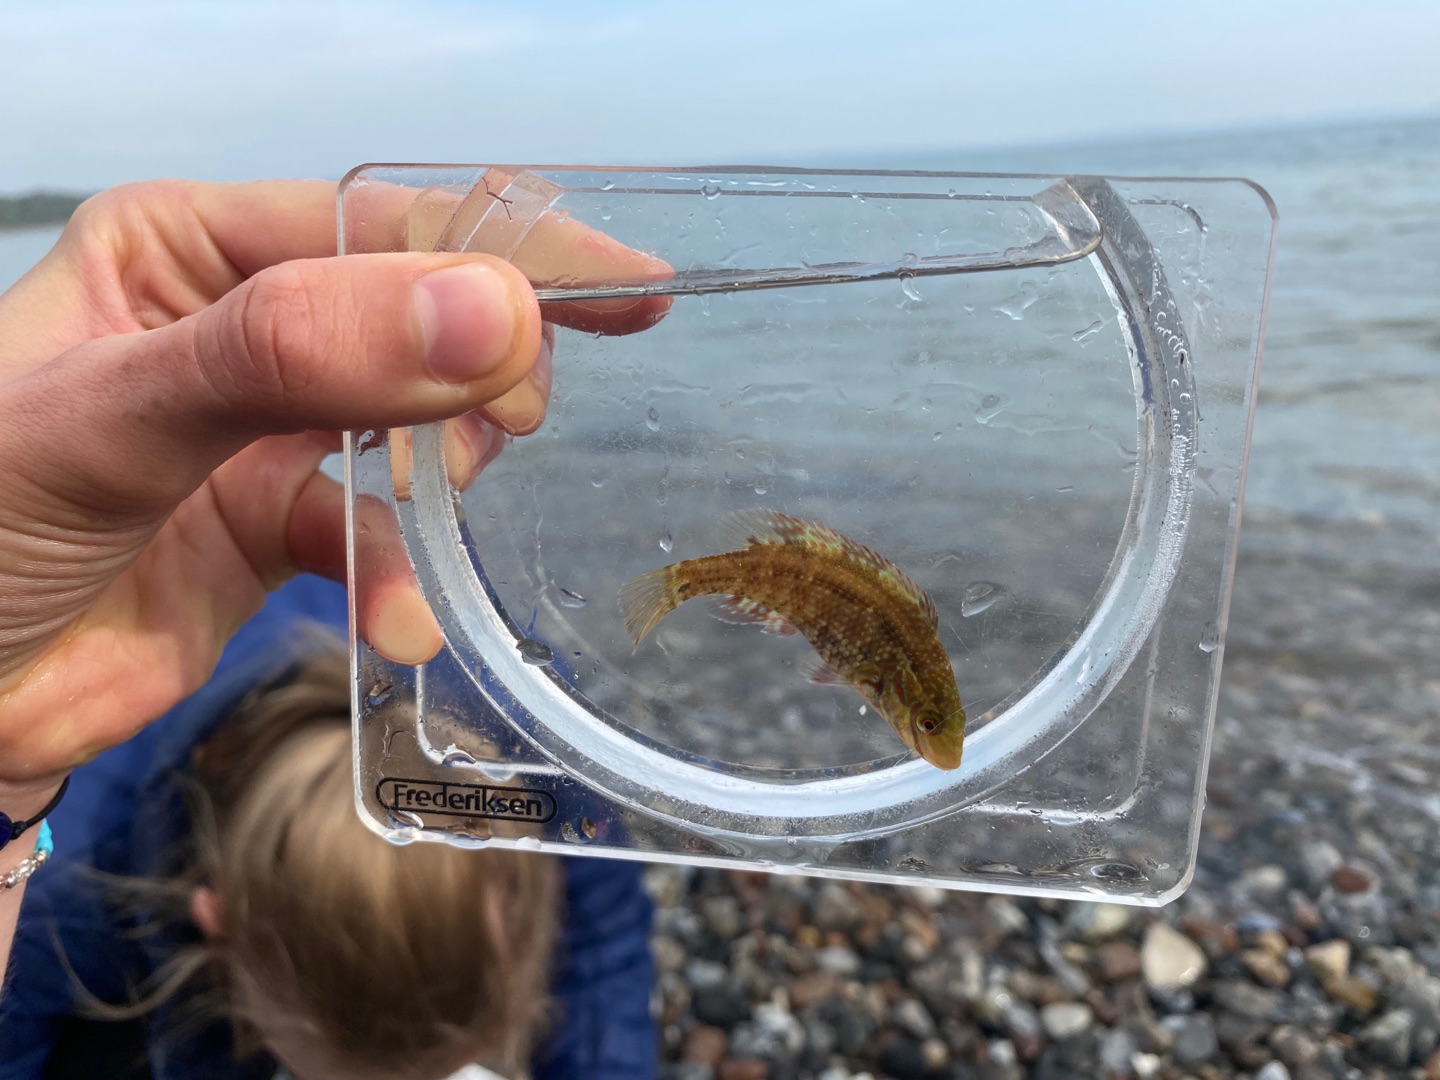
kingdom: Animalia
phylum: Chordata
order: Perciformes
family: Labridae
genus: Symphodus
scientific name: Symphodus melops
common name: Savgylte
